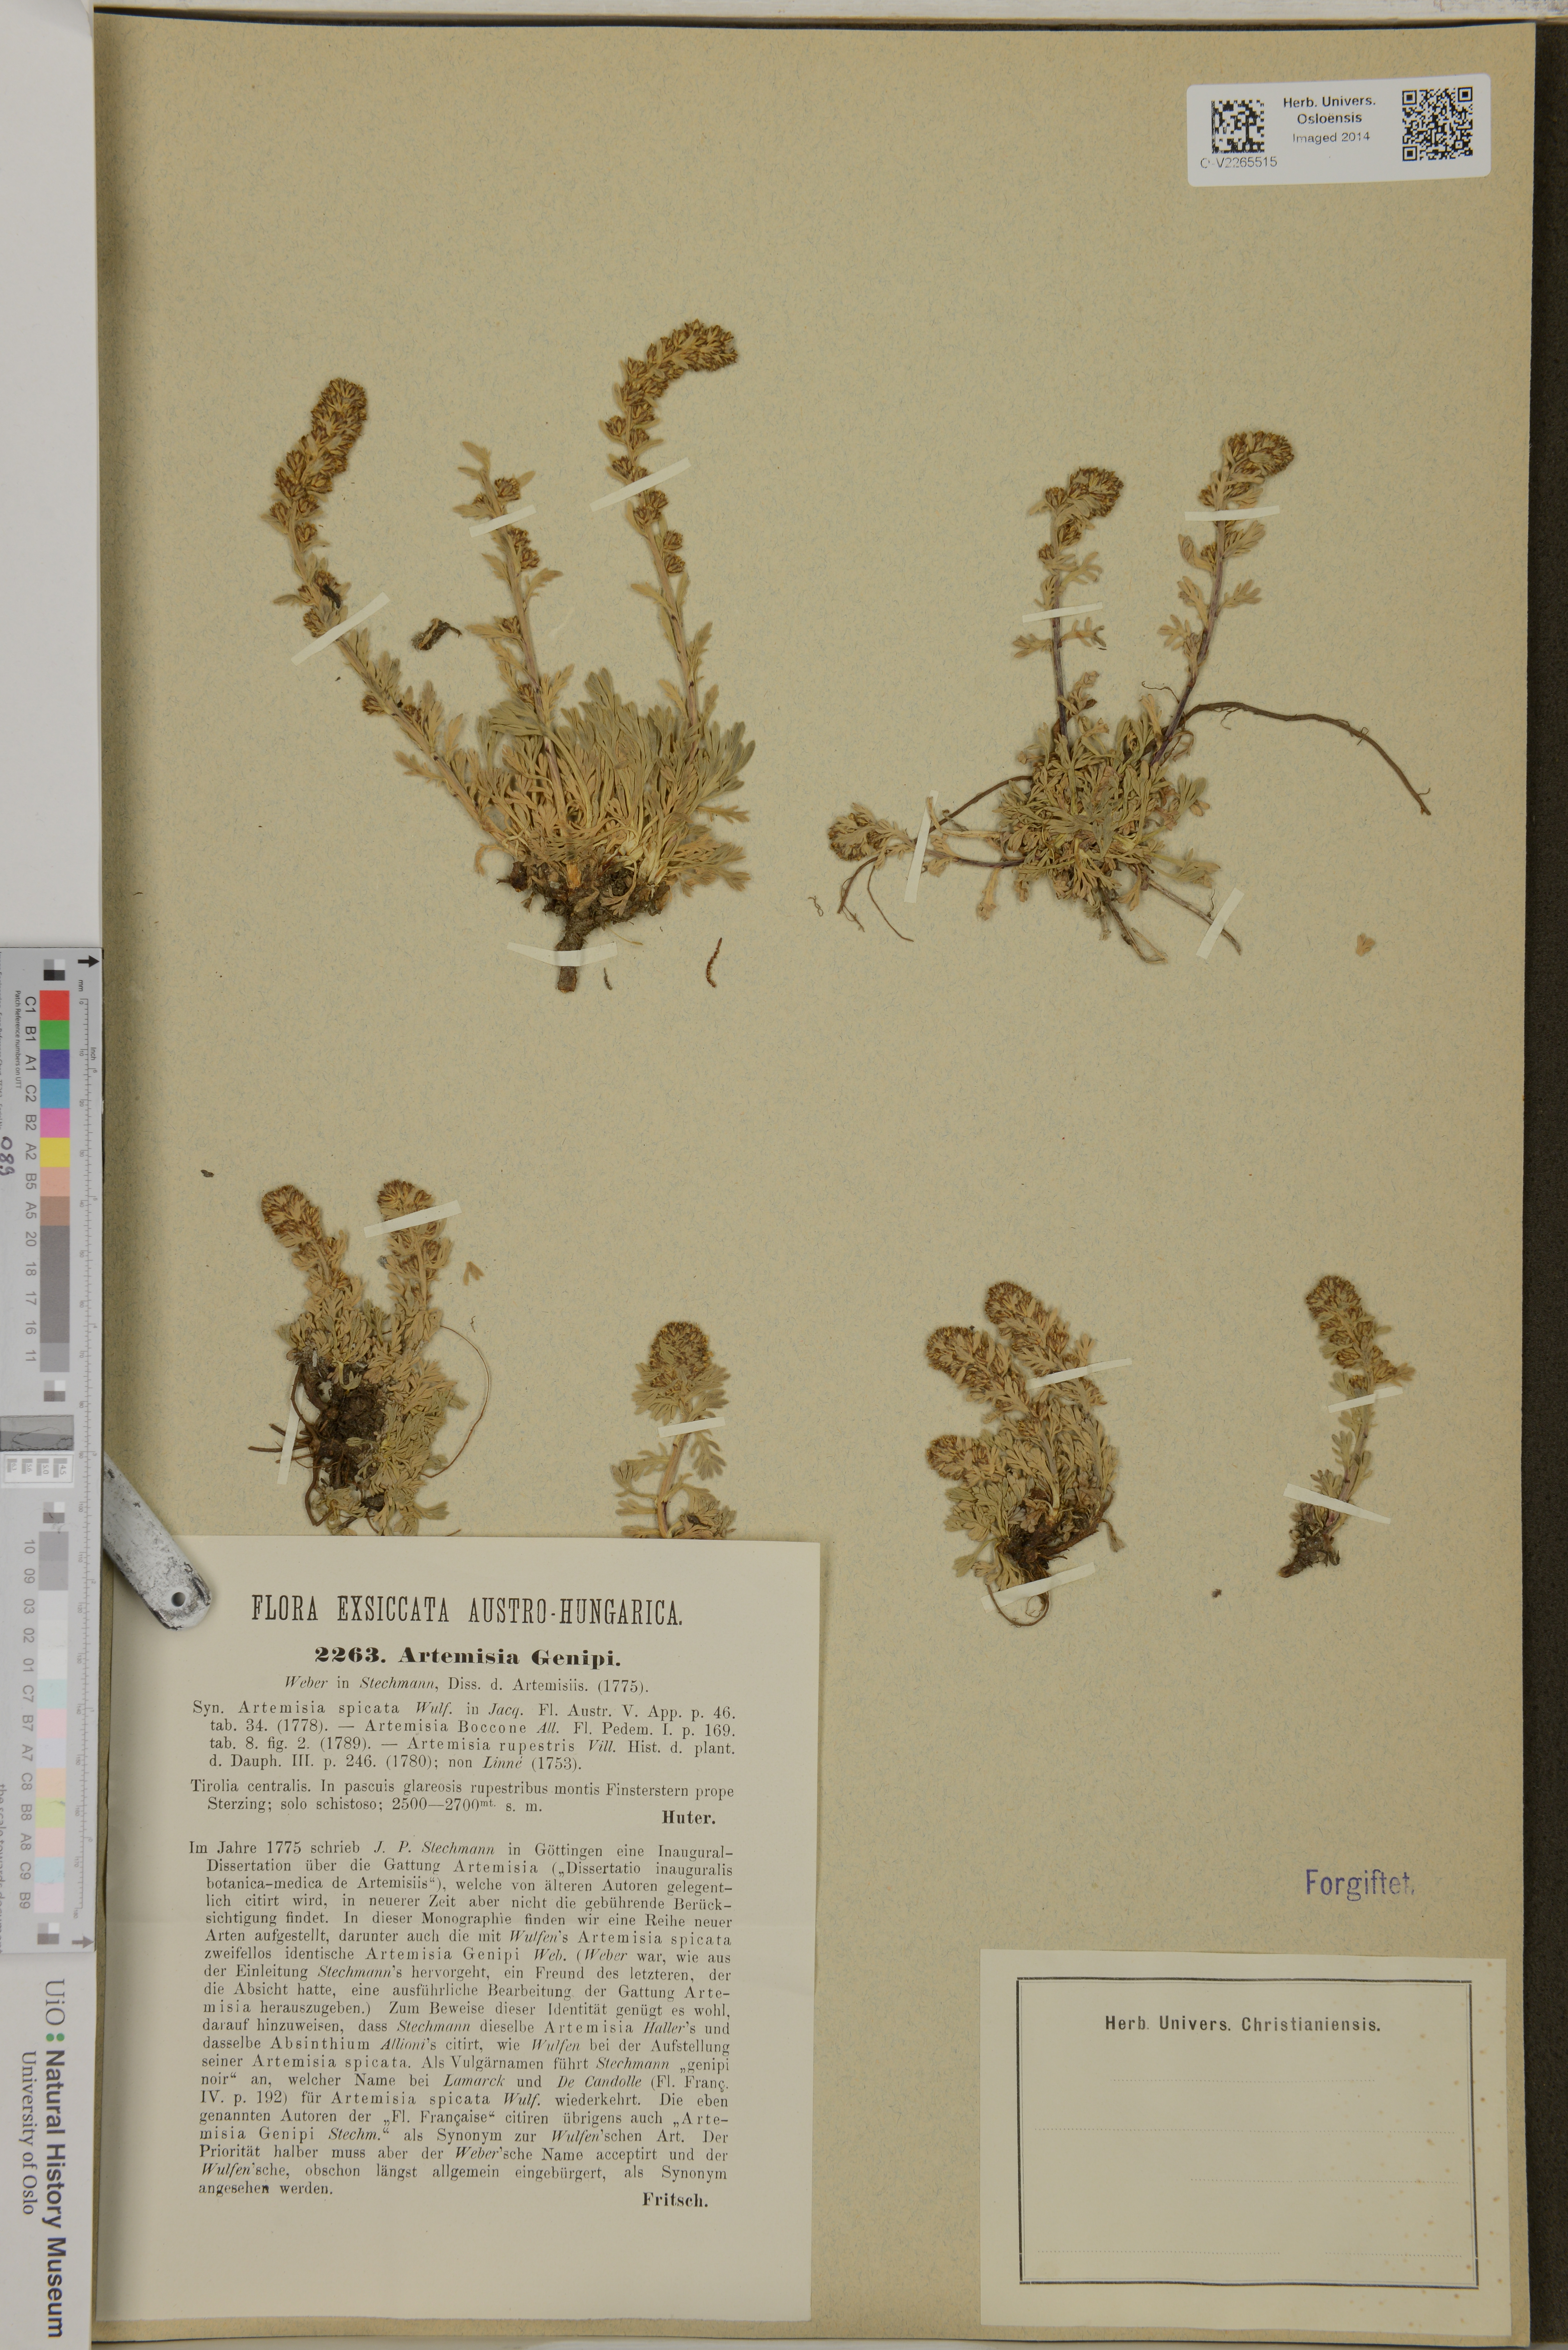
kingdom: Plantae
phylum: Tracheophyta
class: Magnoliopsida
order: Asterales
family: Asteraceae
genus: Artemisia
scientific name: Artemisia genipi
